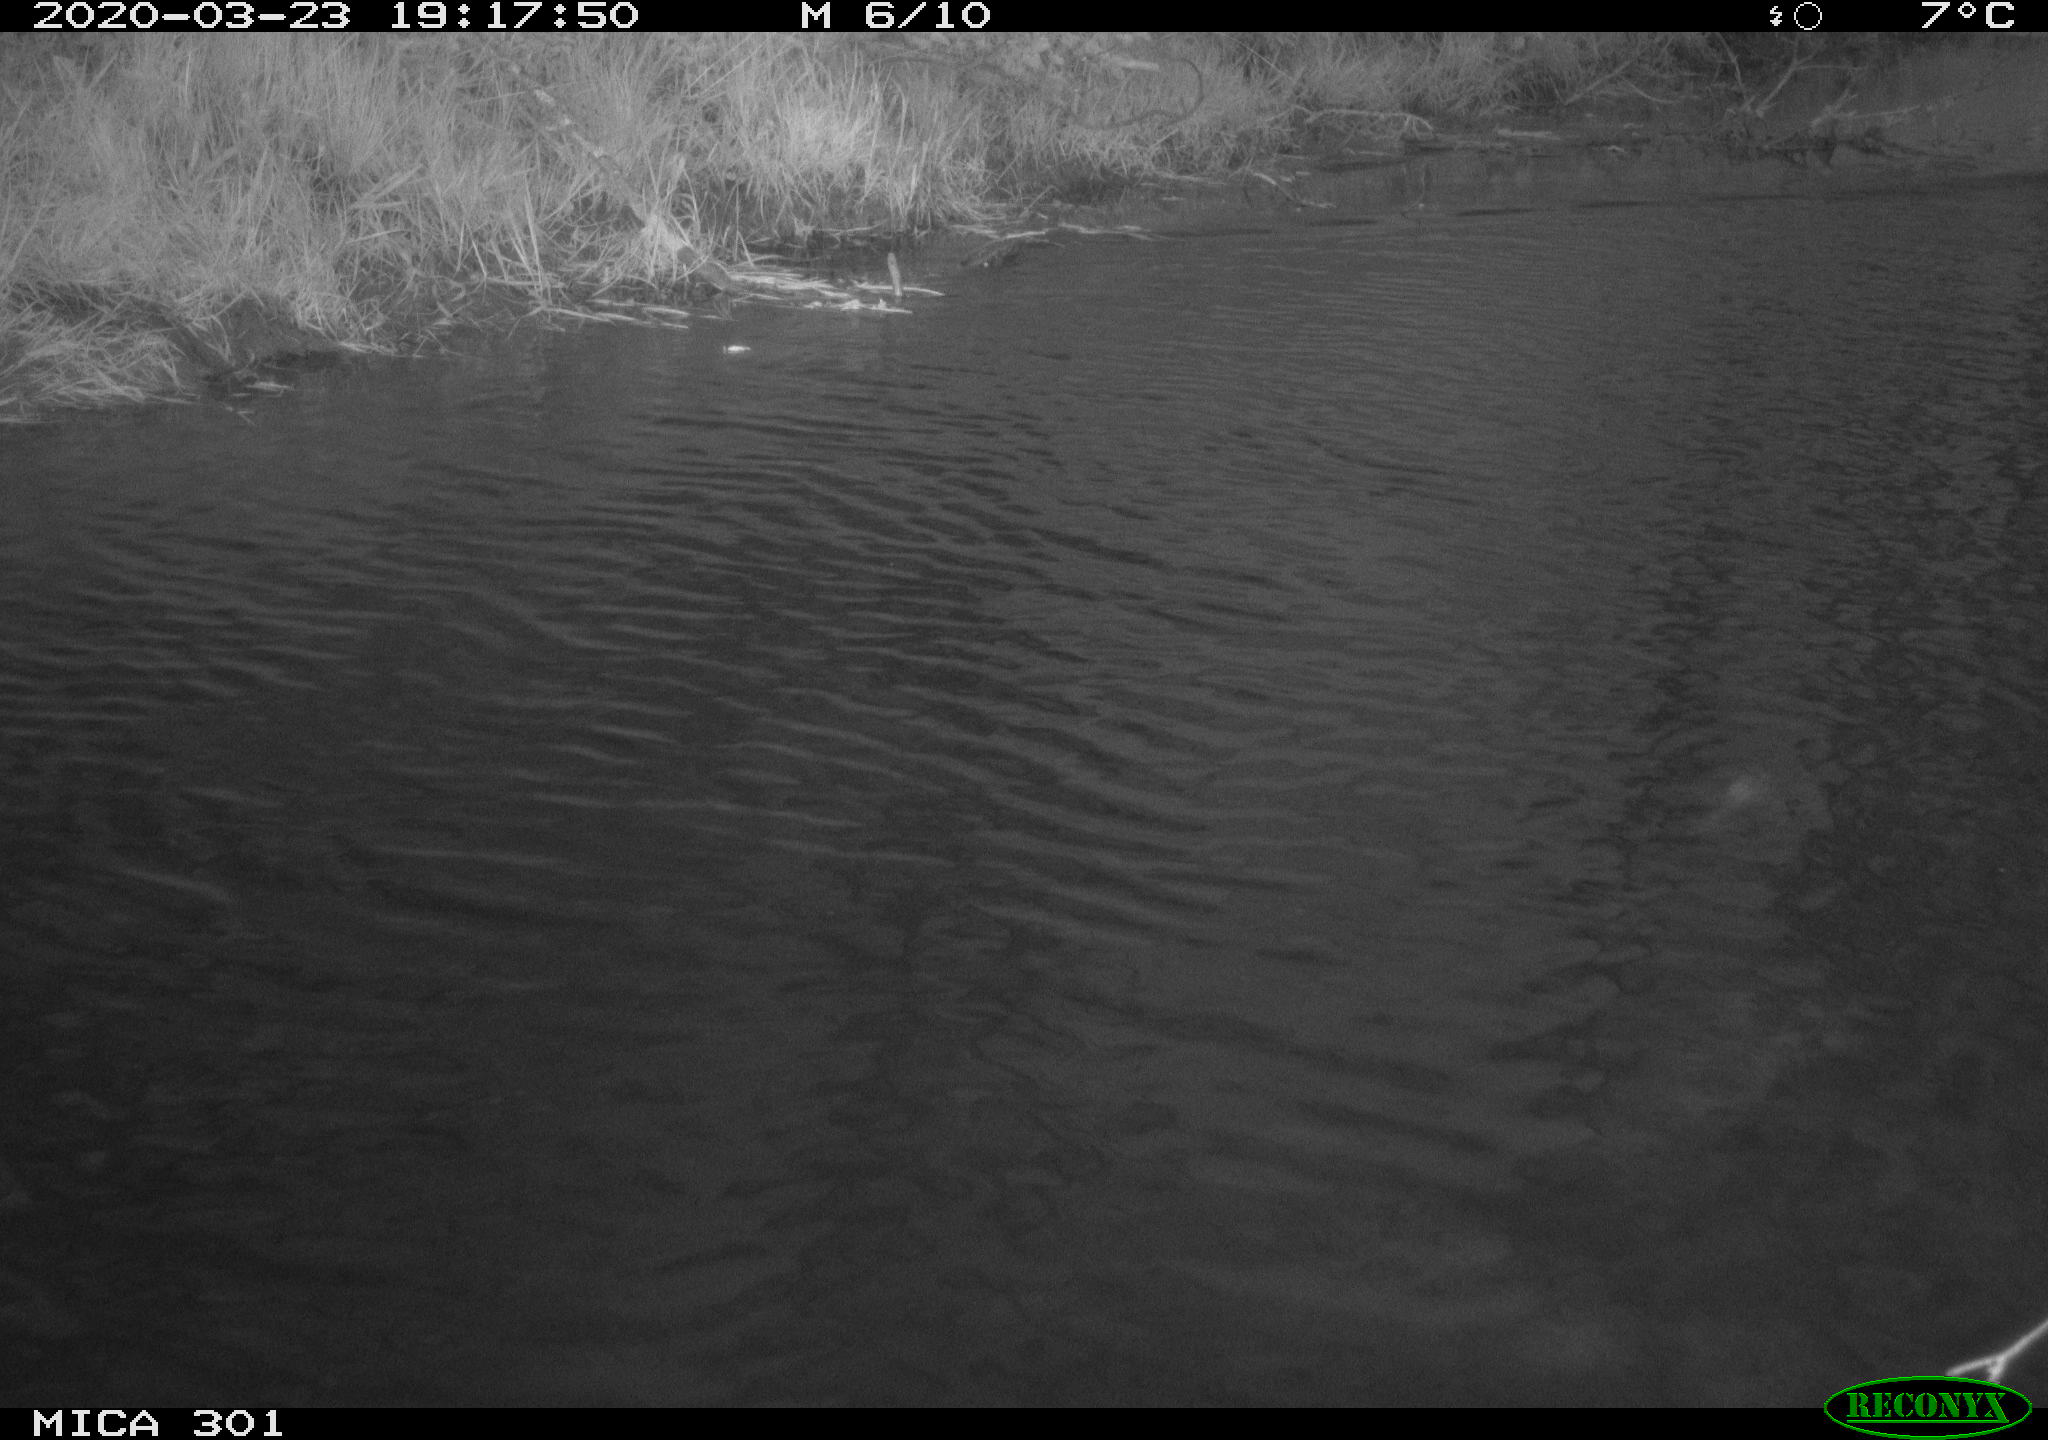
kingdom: Animalia
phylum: Chordata
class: Aves
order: Anseriformes
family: Anatidae
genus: Anas
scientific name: Anas platyrhynchos
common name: Mallard
